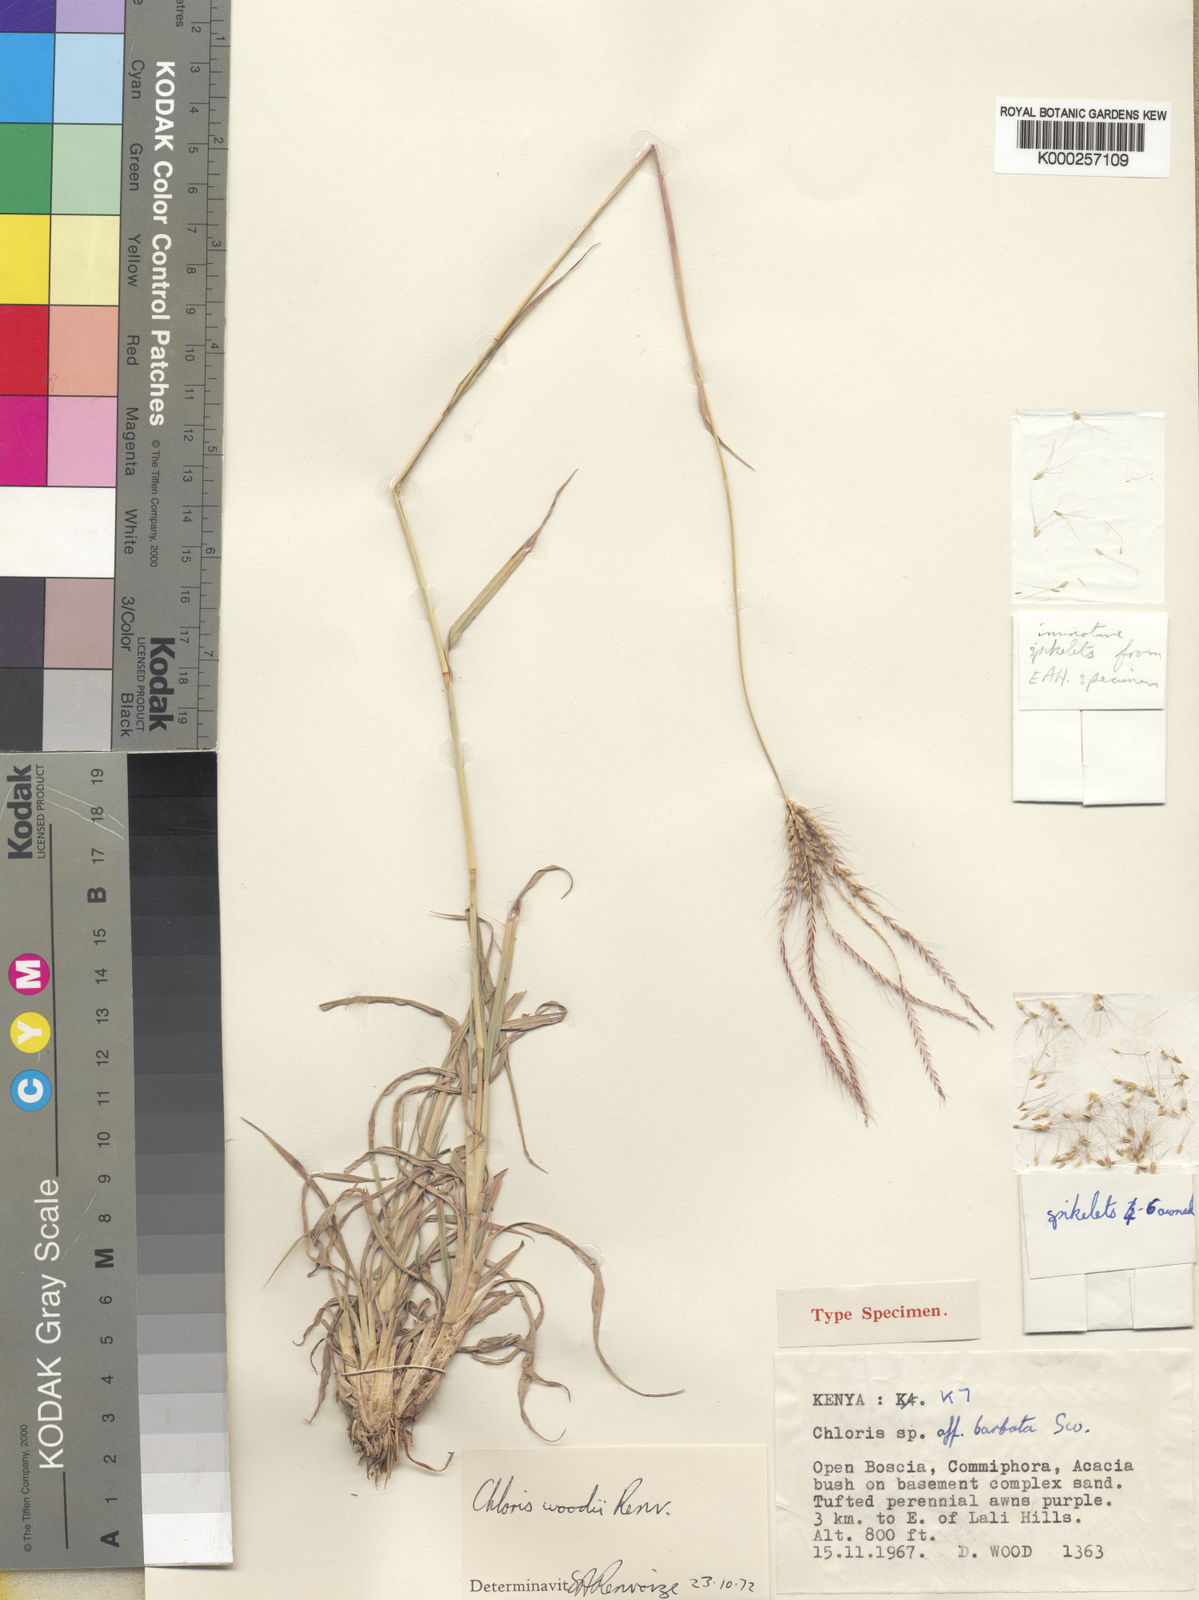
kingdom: Plantae
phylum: Tracheophyta
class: Liliopsida
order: Poales
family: Poaceae
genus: Chloris
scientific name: Chloris woodii
